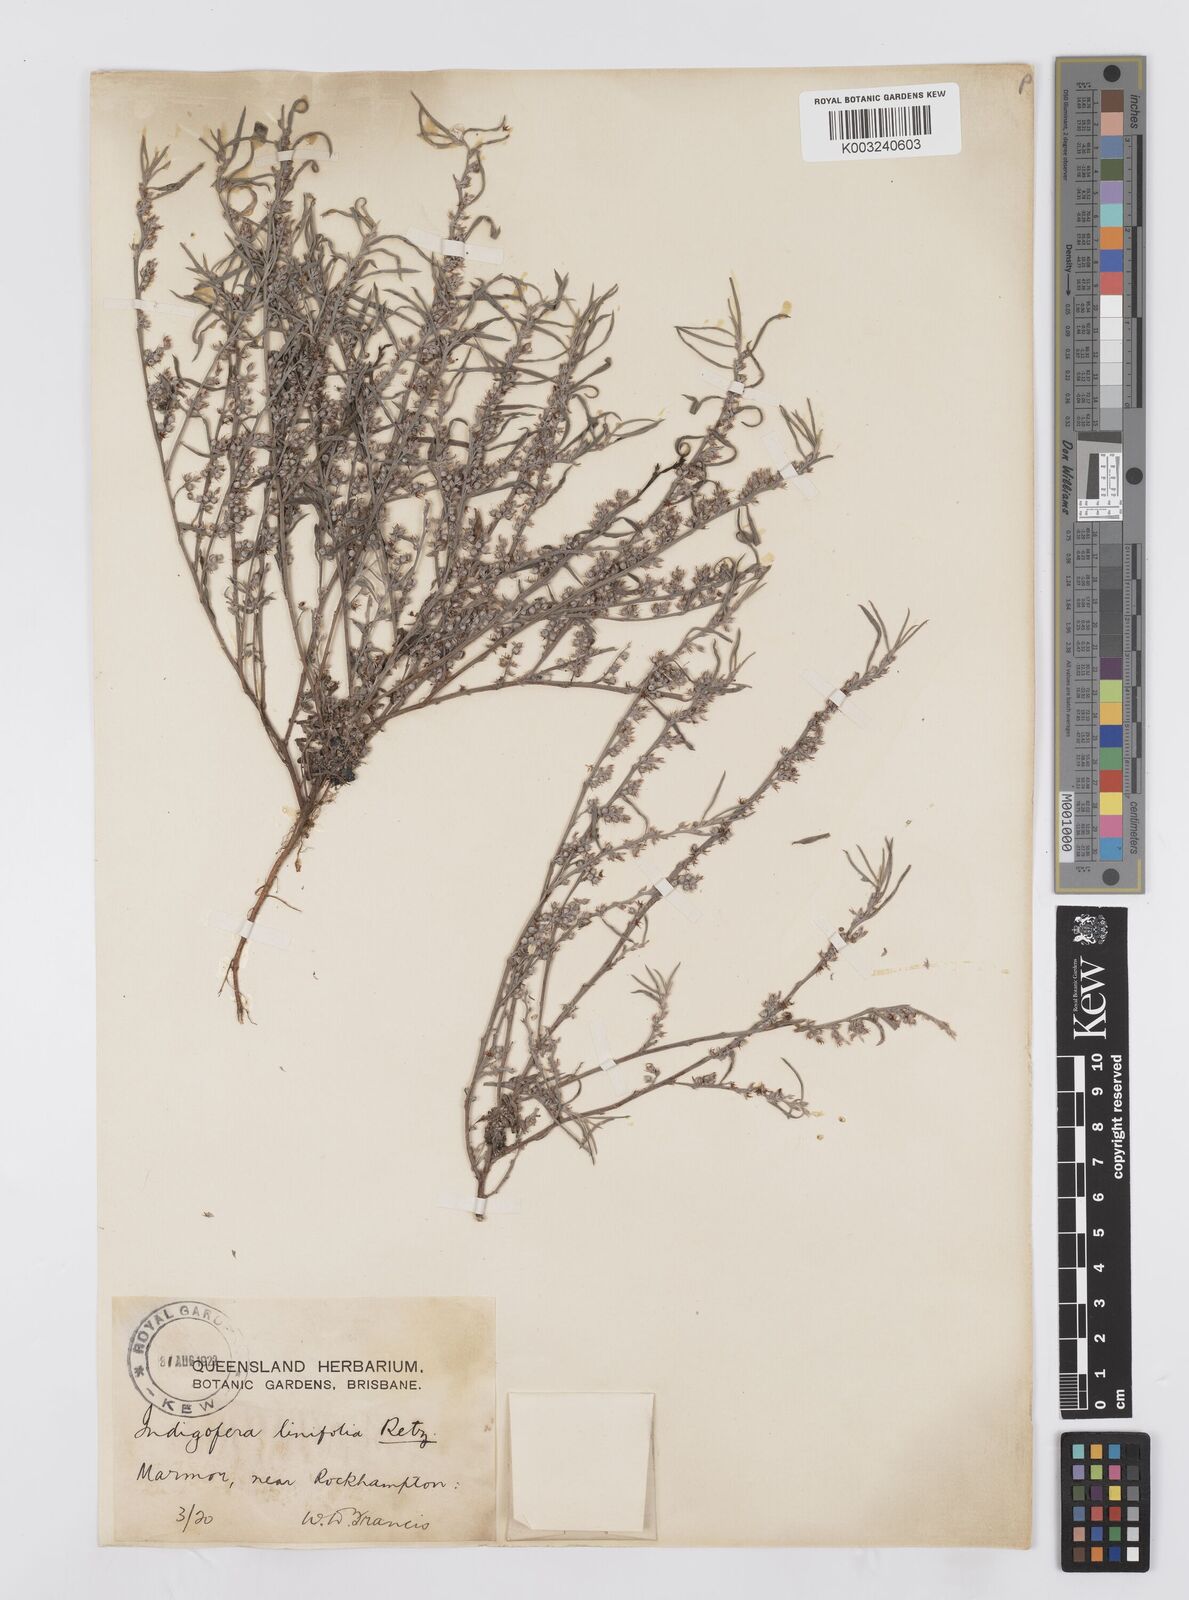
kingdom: Plantae
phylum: Tracheophyta
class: Magnoliopsida
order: Fabales
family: Fabaceae
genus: Indigofera
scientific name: Indigofera linifolia
